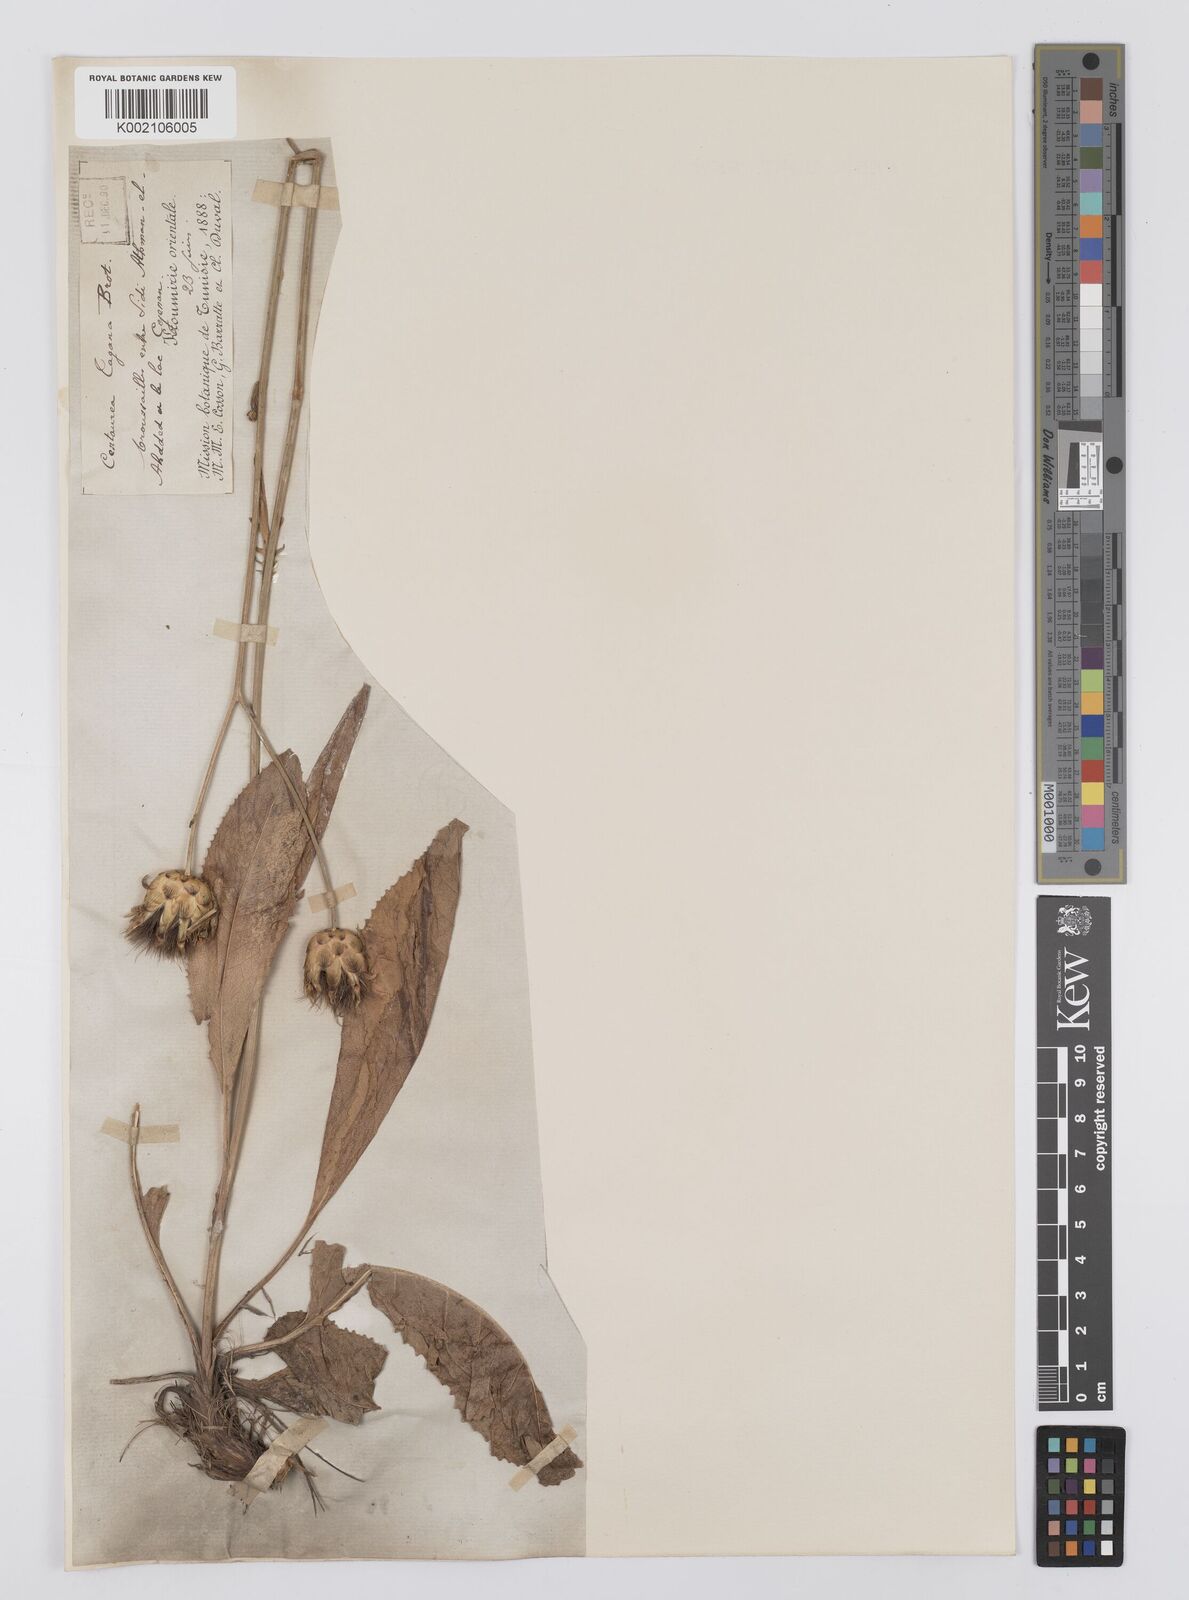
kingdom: Plantae
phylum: Tracheophyta
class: Magnoliopsida
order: Asterales
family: Asteraceae
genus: Centaurea
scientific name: Centaurea
